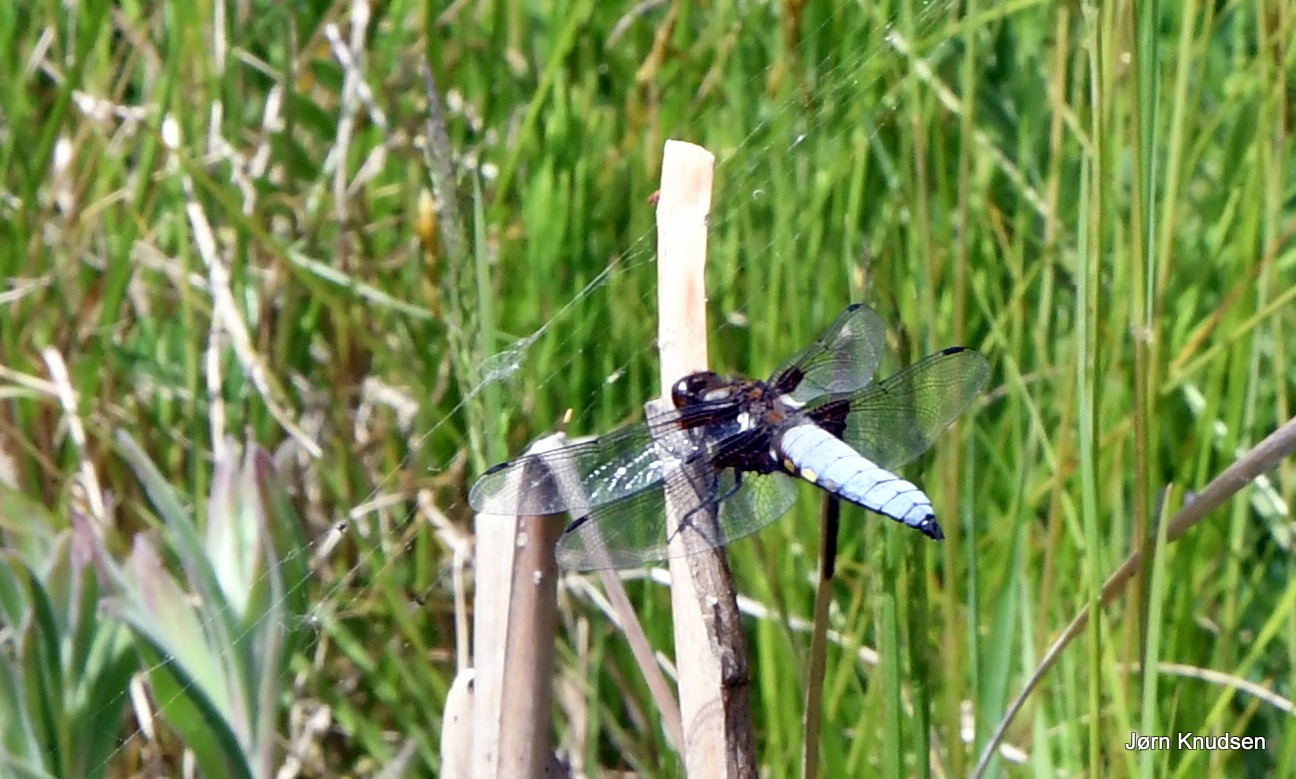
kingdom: Animalia
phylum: Arthropoda
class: Insecta
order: Odonata
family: Libellulidae
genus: Libellula
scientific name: Libellula depressa
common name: Blå libel
